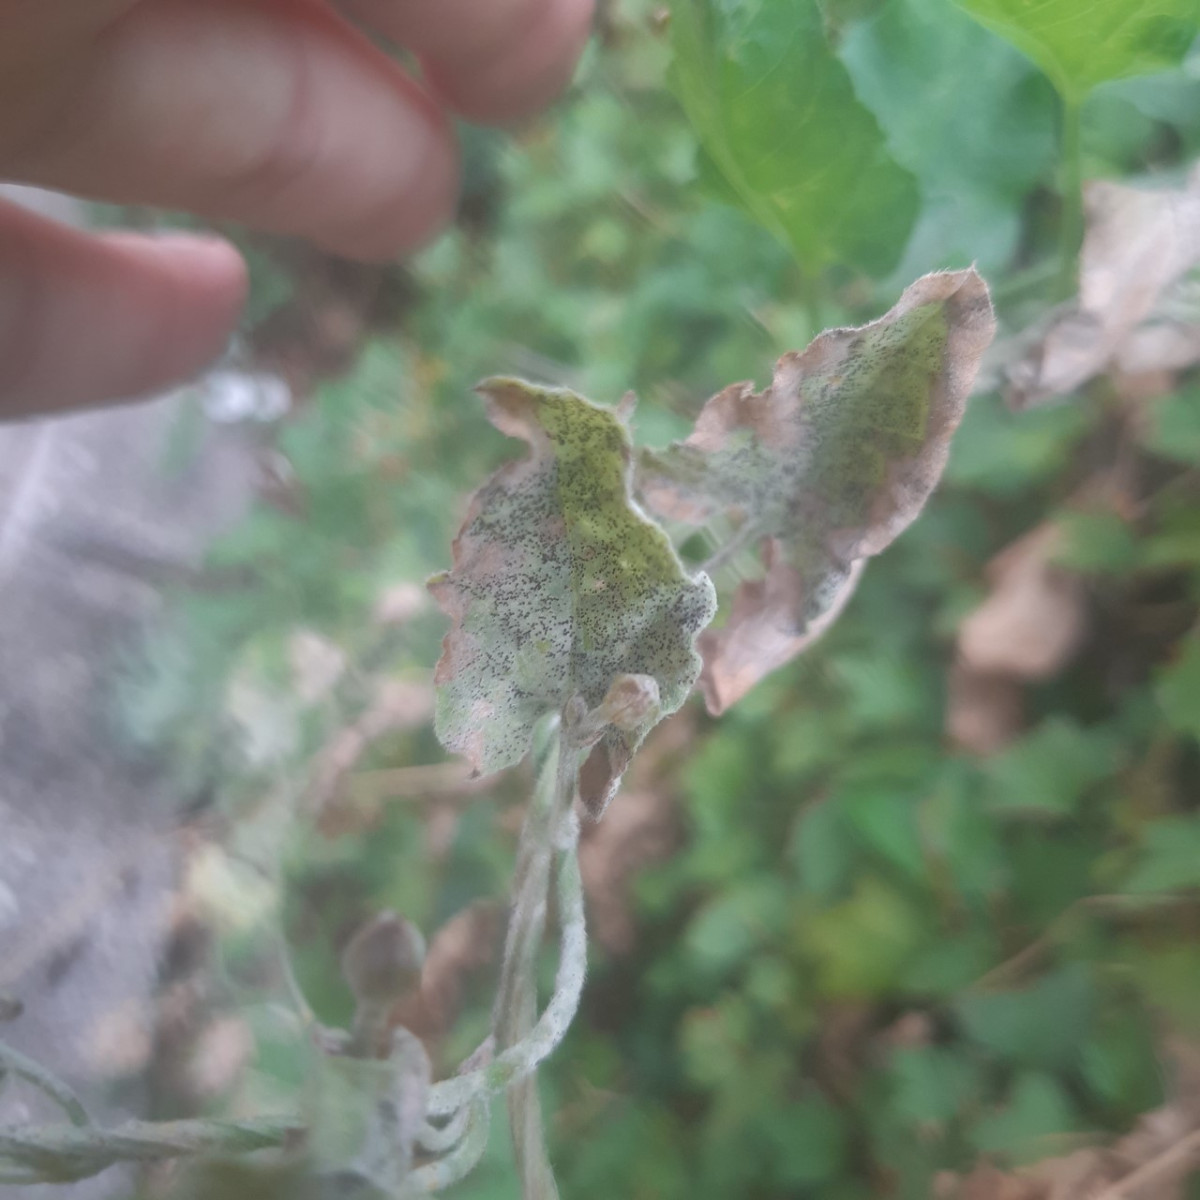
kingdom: Fungi
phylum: Ascomycota
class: Leotiomycetes
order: Helotiales
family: Erysiphaceae
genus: Erysiphe
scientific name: Erysiphe convolvuli
